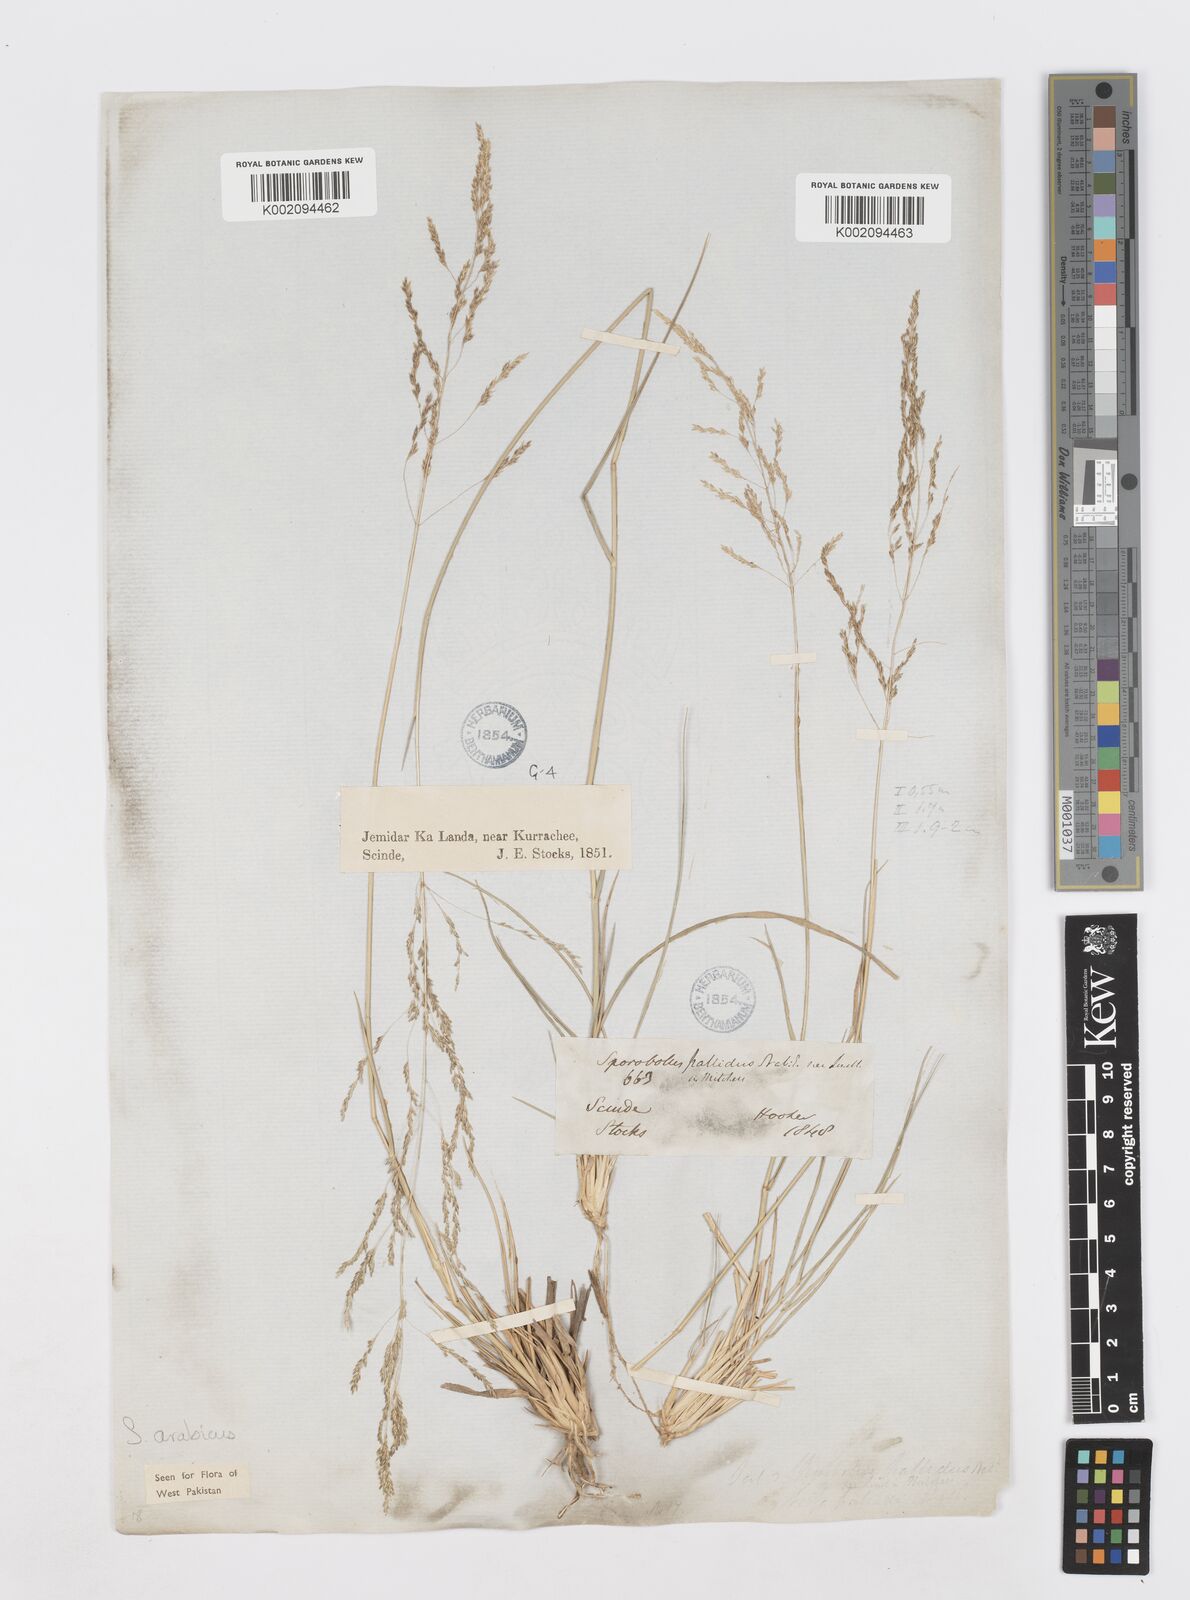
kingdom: Plantae
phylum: Tracheophyta
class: Liliopsida
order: Poales
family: Poaceae
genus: Sporobolus
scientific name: Sporobolus ioclados
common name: Pan dropseed
